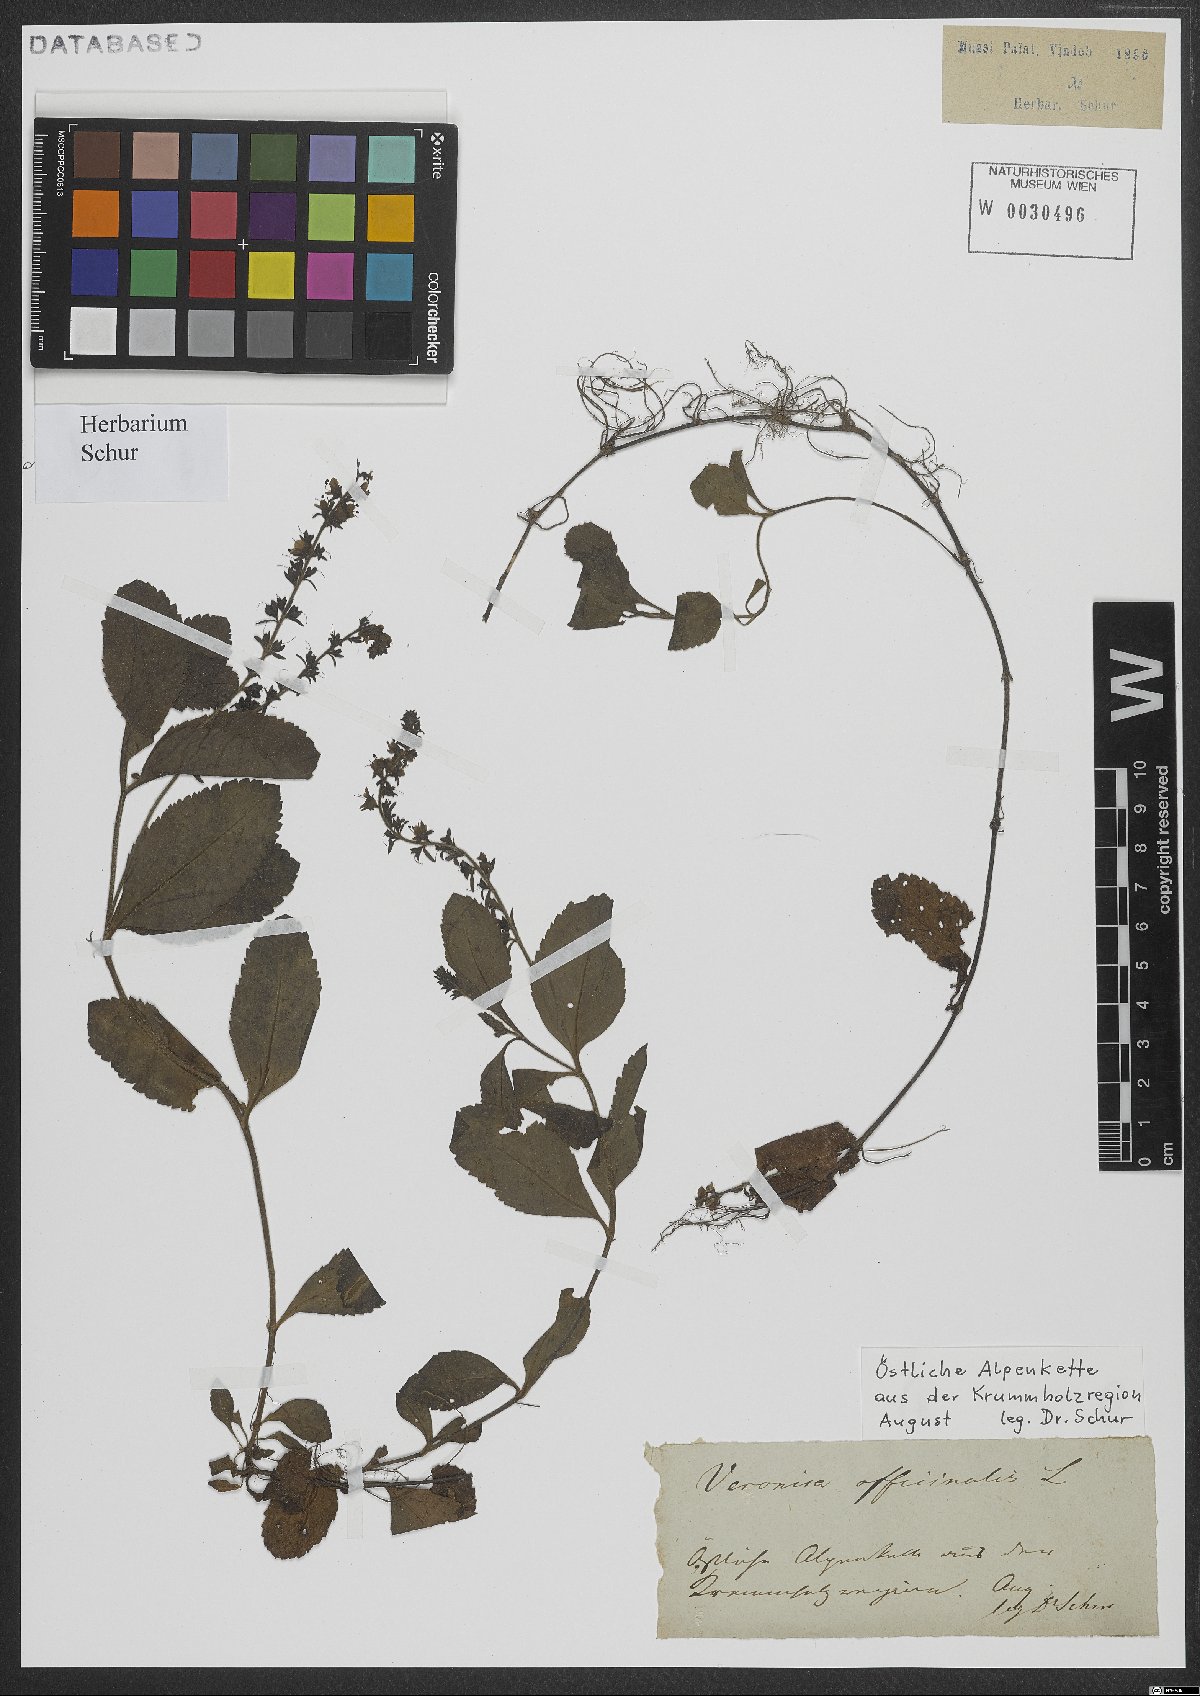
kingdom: Plantae
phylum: Tracheophyta
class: Magnoliopsida
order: Lamiales
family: Plantaginaceae
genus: Veronica
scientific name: Veronica officinalis
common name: Common speedwell
